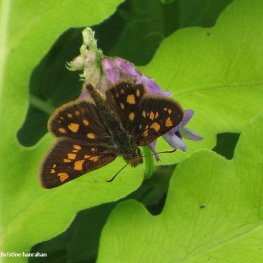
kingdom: Animalia
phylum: Arthropoda
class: Insecta
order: Lepidoptera
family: Hesperiidae
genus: Carterocephalus
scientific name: Carterocephalus palaemon
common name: Chequered Skipper
